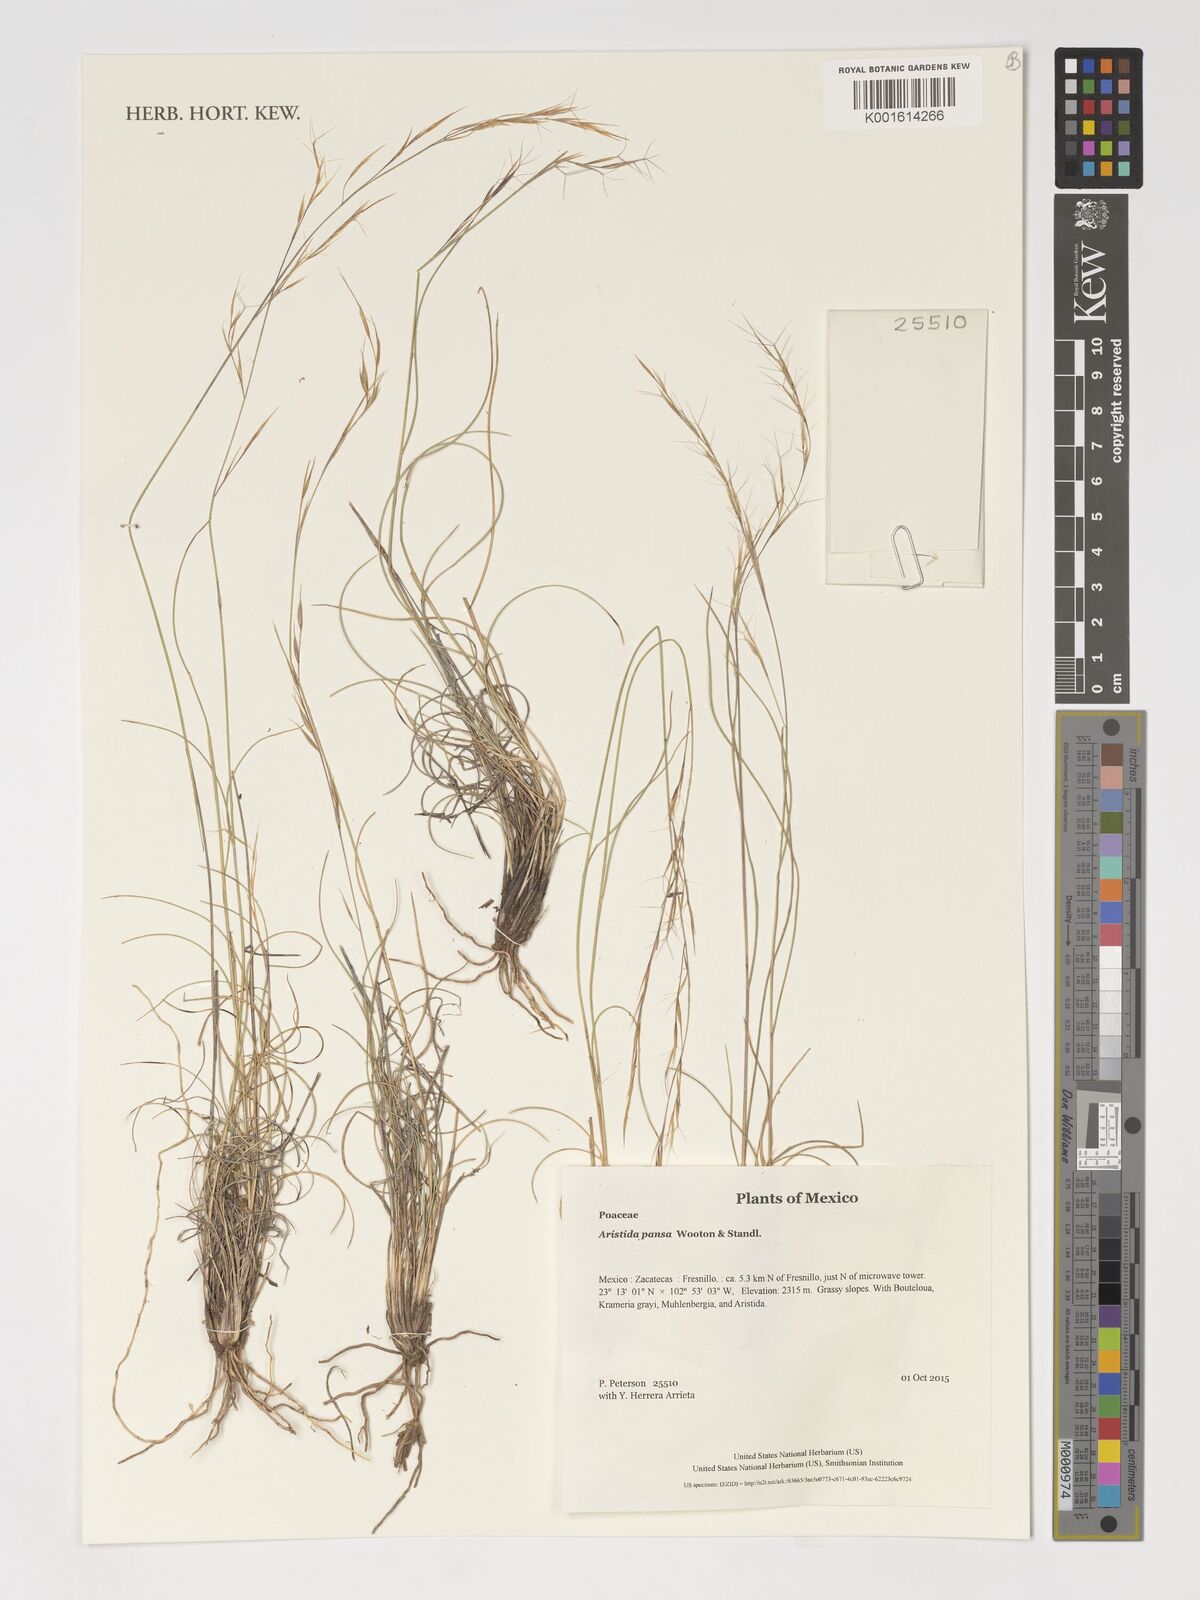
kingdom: Plantae
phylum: Tracheophyta
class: Liliopsida
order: Poales
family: Poaceae
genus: Aristida
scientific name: Aristida pansa
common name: Wooton's three-awn
